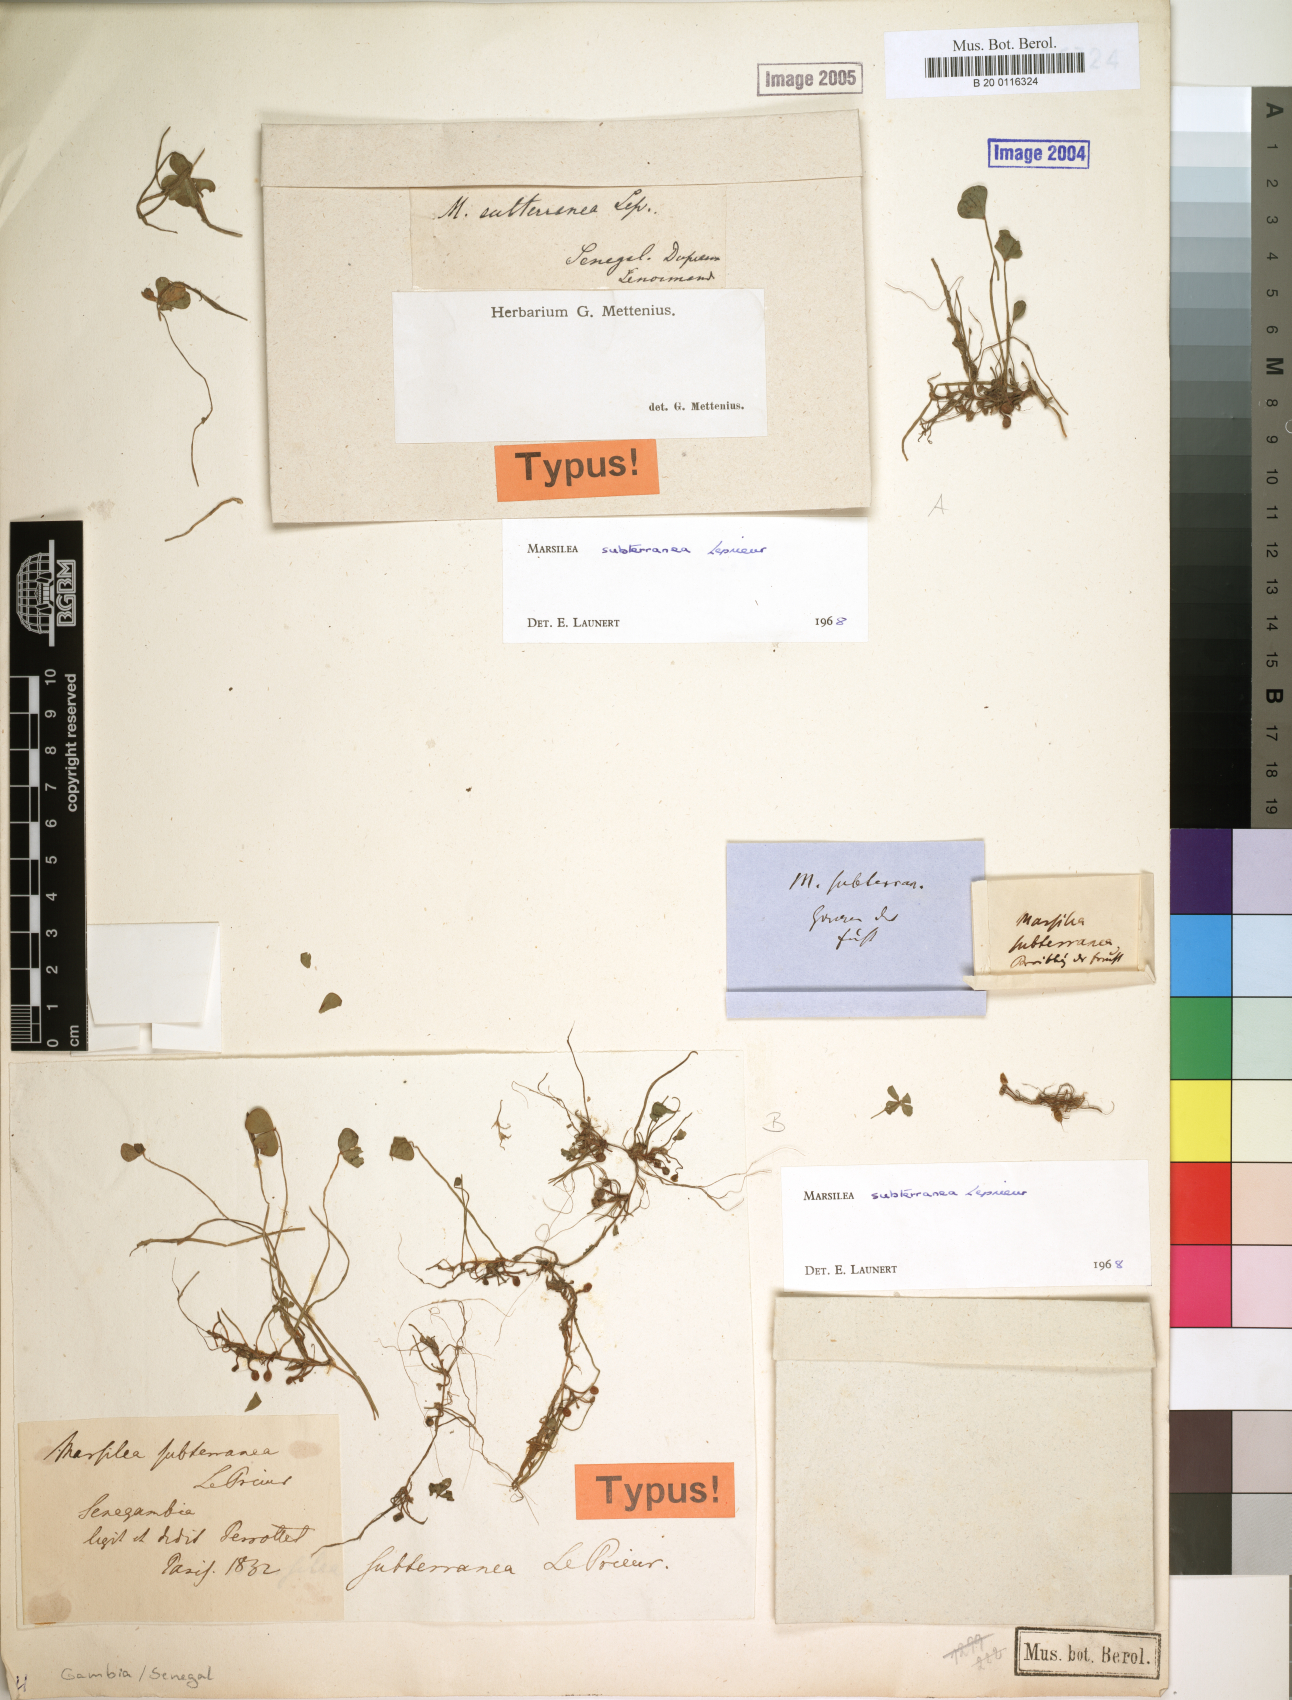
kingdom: Plantae
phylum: Tracheophyta
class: Polypodiopsida
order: Salviniales
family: Marsileaceae
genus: Marsilea
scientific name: Marsilea subterranea
